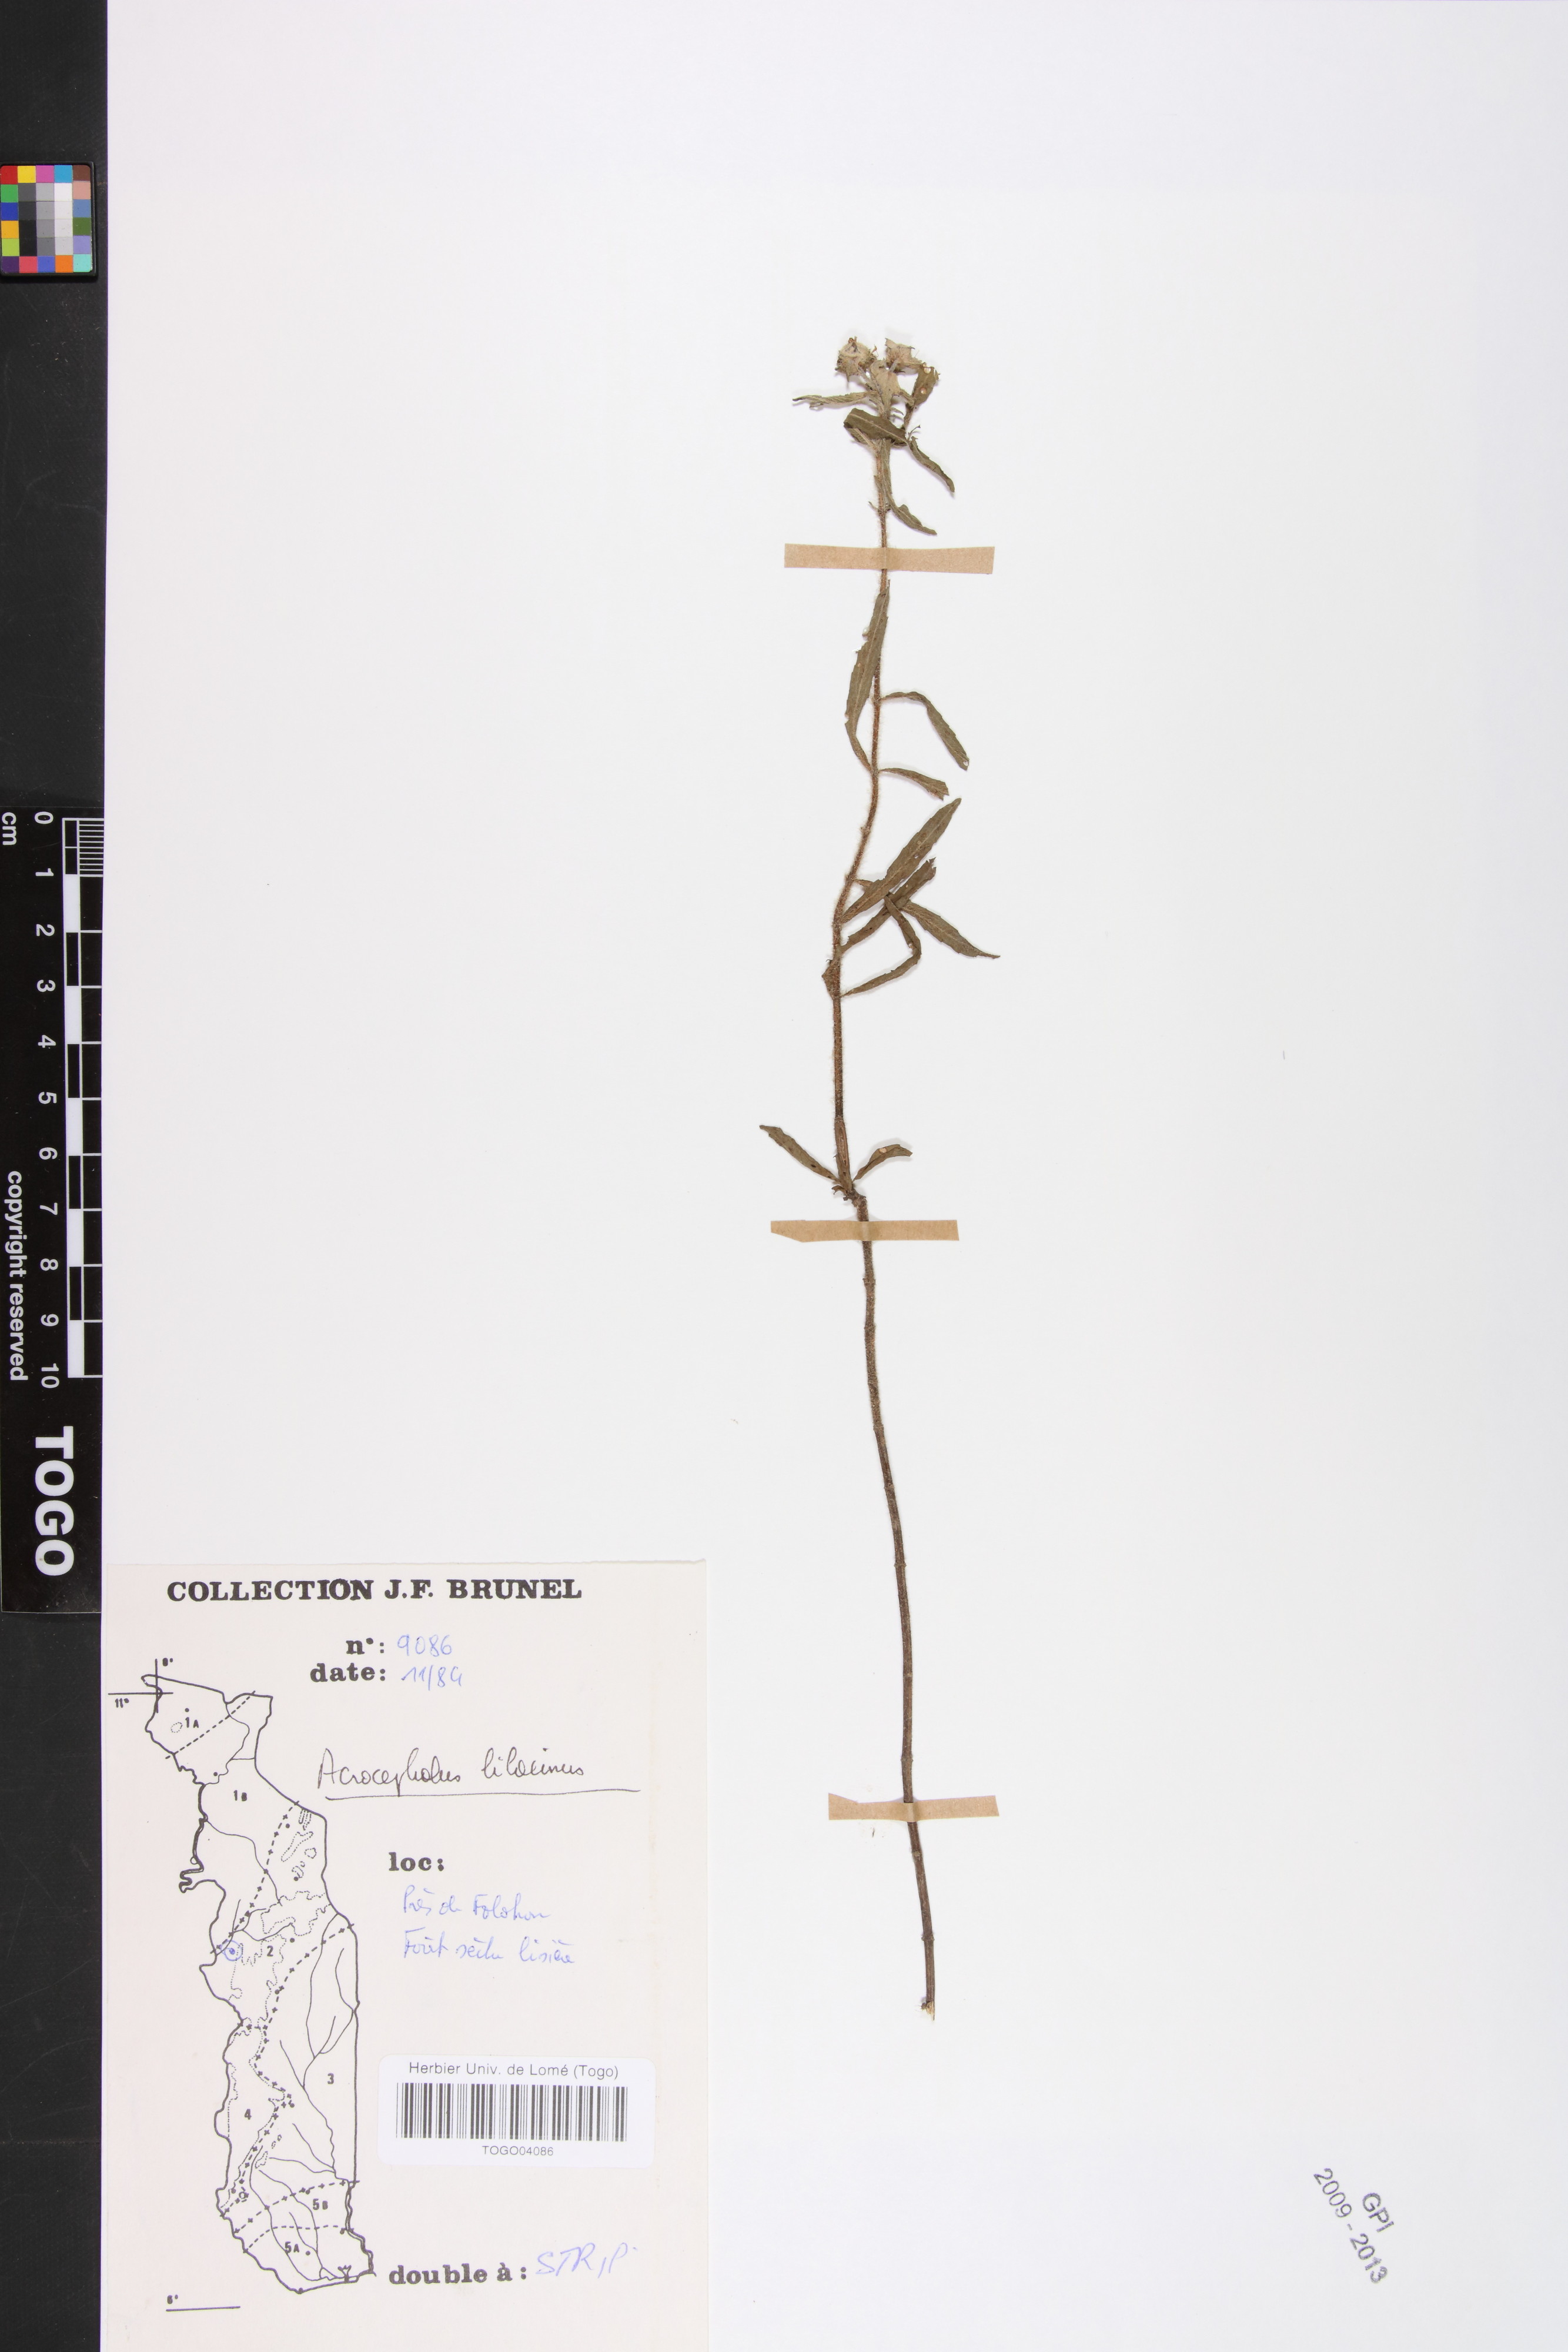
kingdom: Plantae
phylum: Tracheophyta
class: Magnoliopsida
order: Lamiales
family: Lamiaceae
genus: Haumaniastrum
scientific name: Haumaniastrum caeruleum
